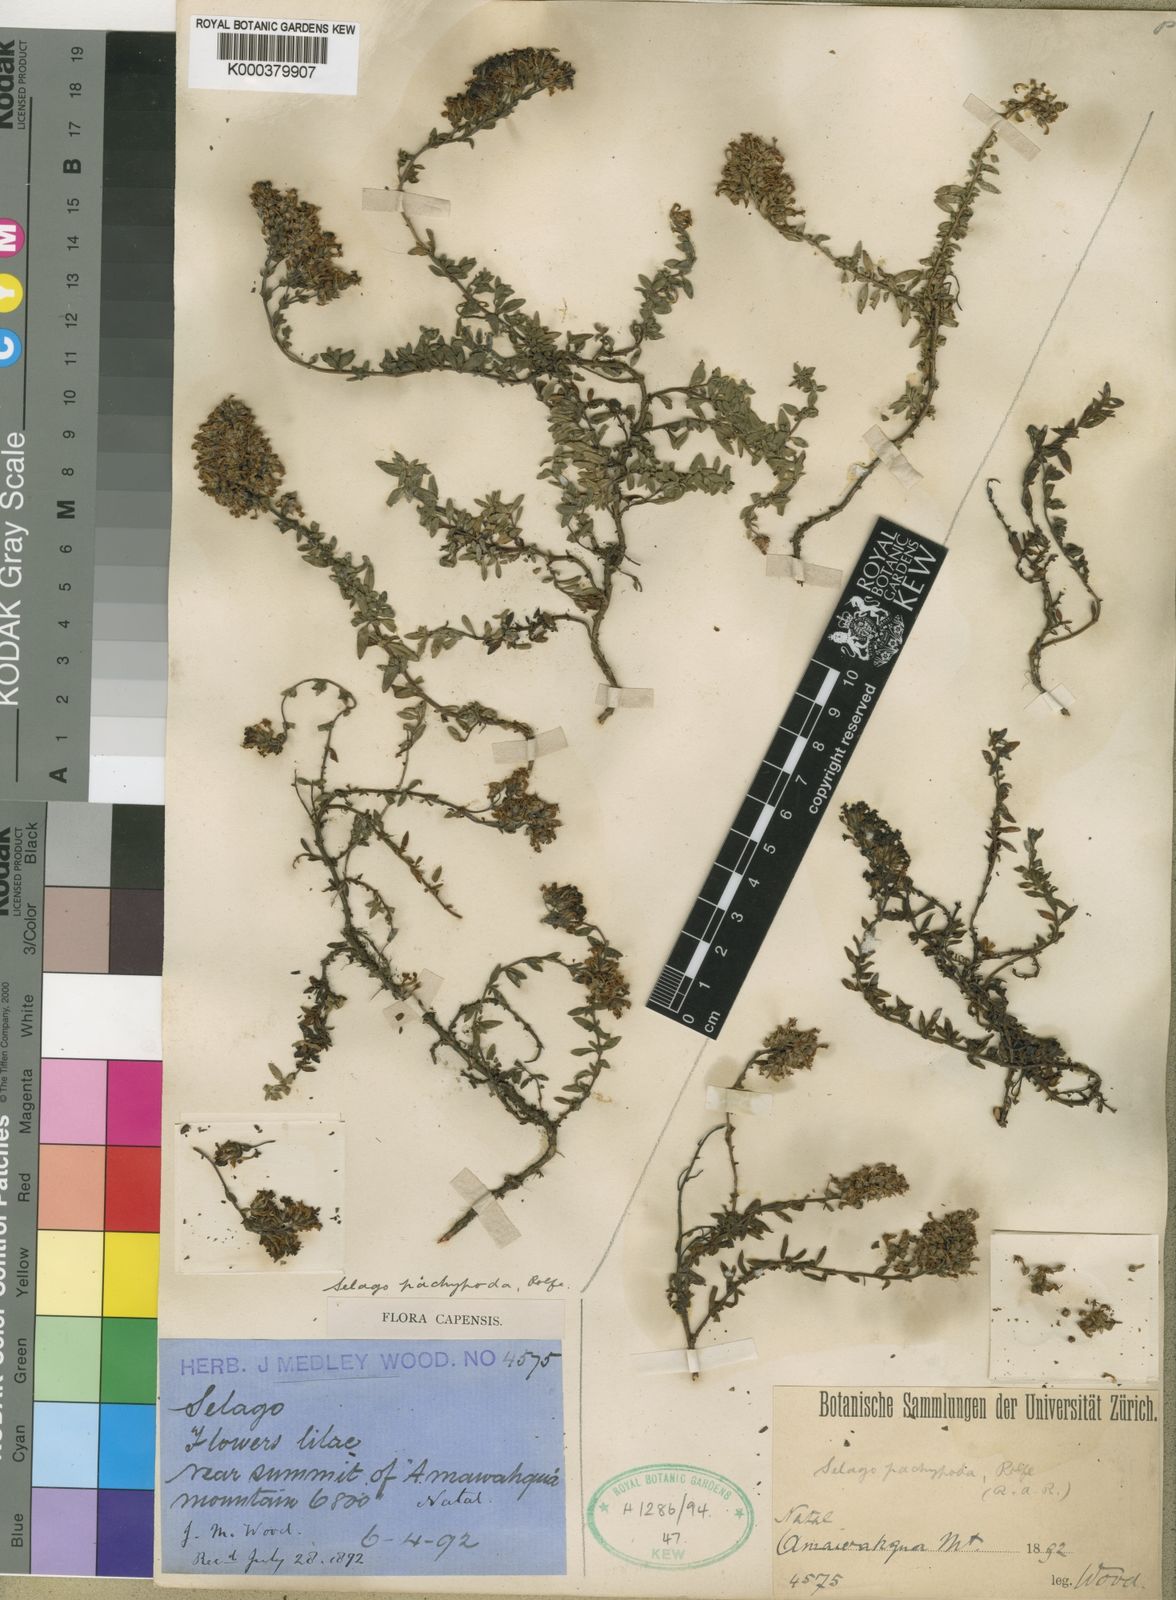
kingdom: Plantae
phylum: Tracheophyta
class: Magnoliopsida
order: Lamiales
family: Scrophulariaceae
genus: Selago
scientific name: Selago pachypoda
